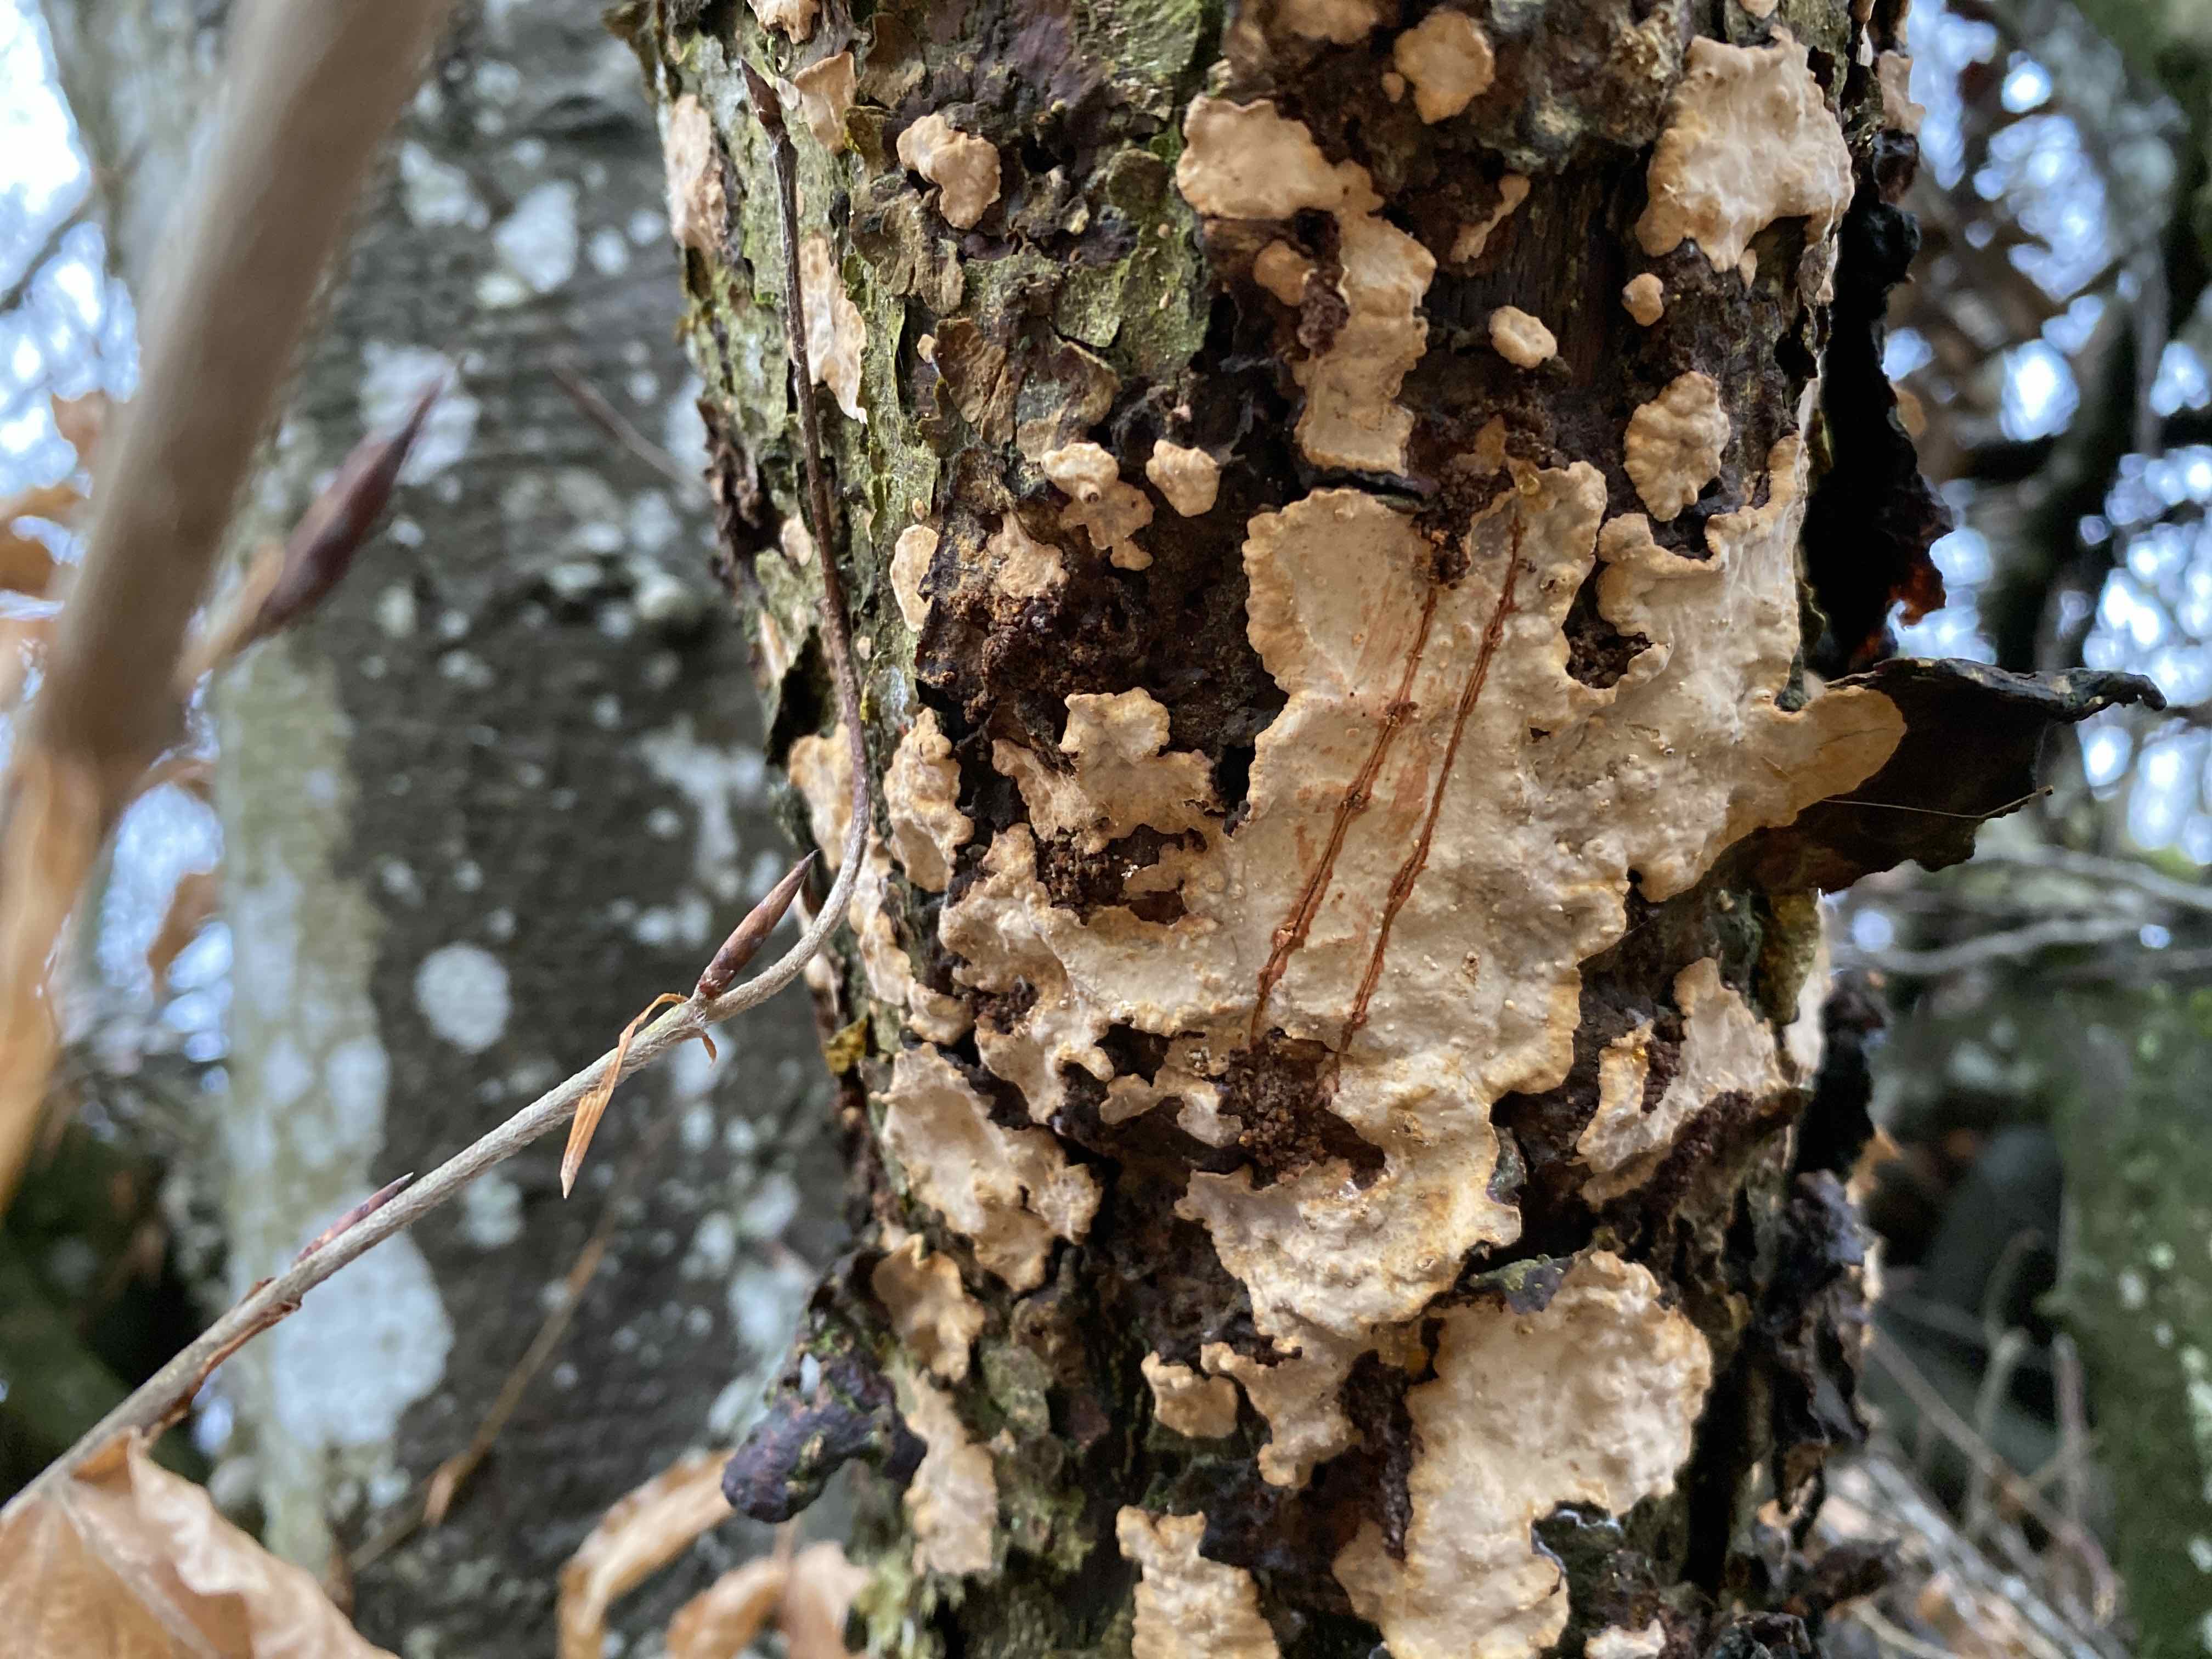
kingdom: Fungi
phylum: Basidiomycota
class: Agaricomycetes
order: Russulales
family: Stereaceae
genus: Stereum
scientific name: Stereum rugosum
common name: rynket lædersvamp
